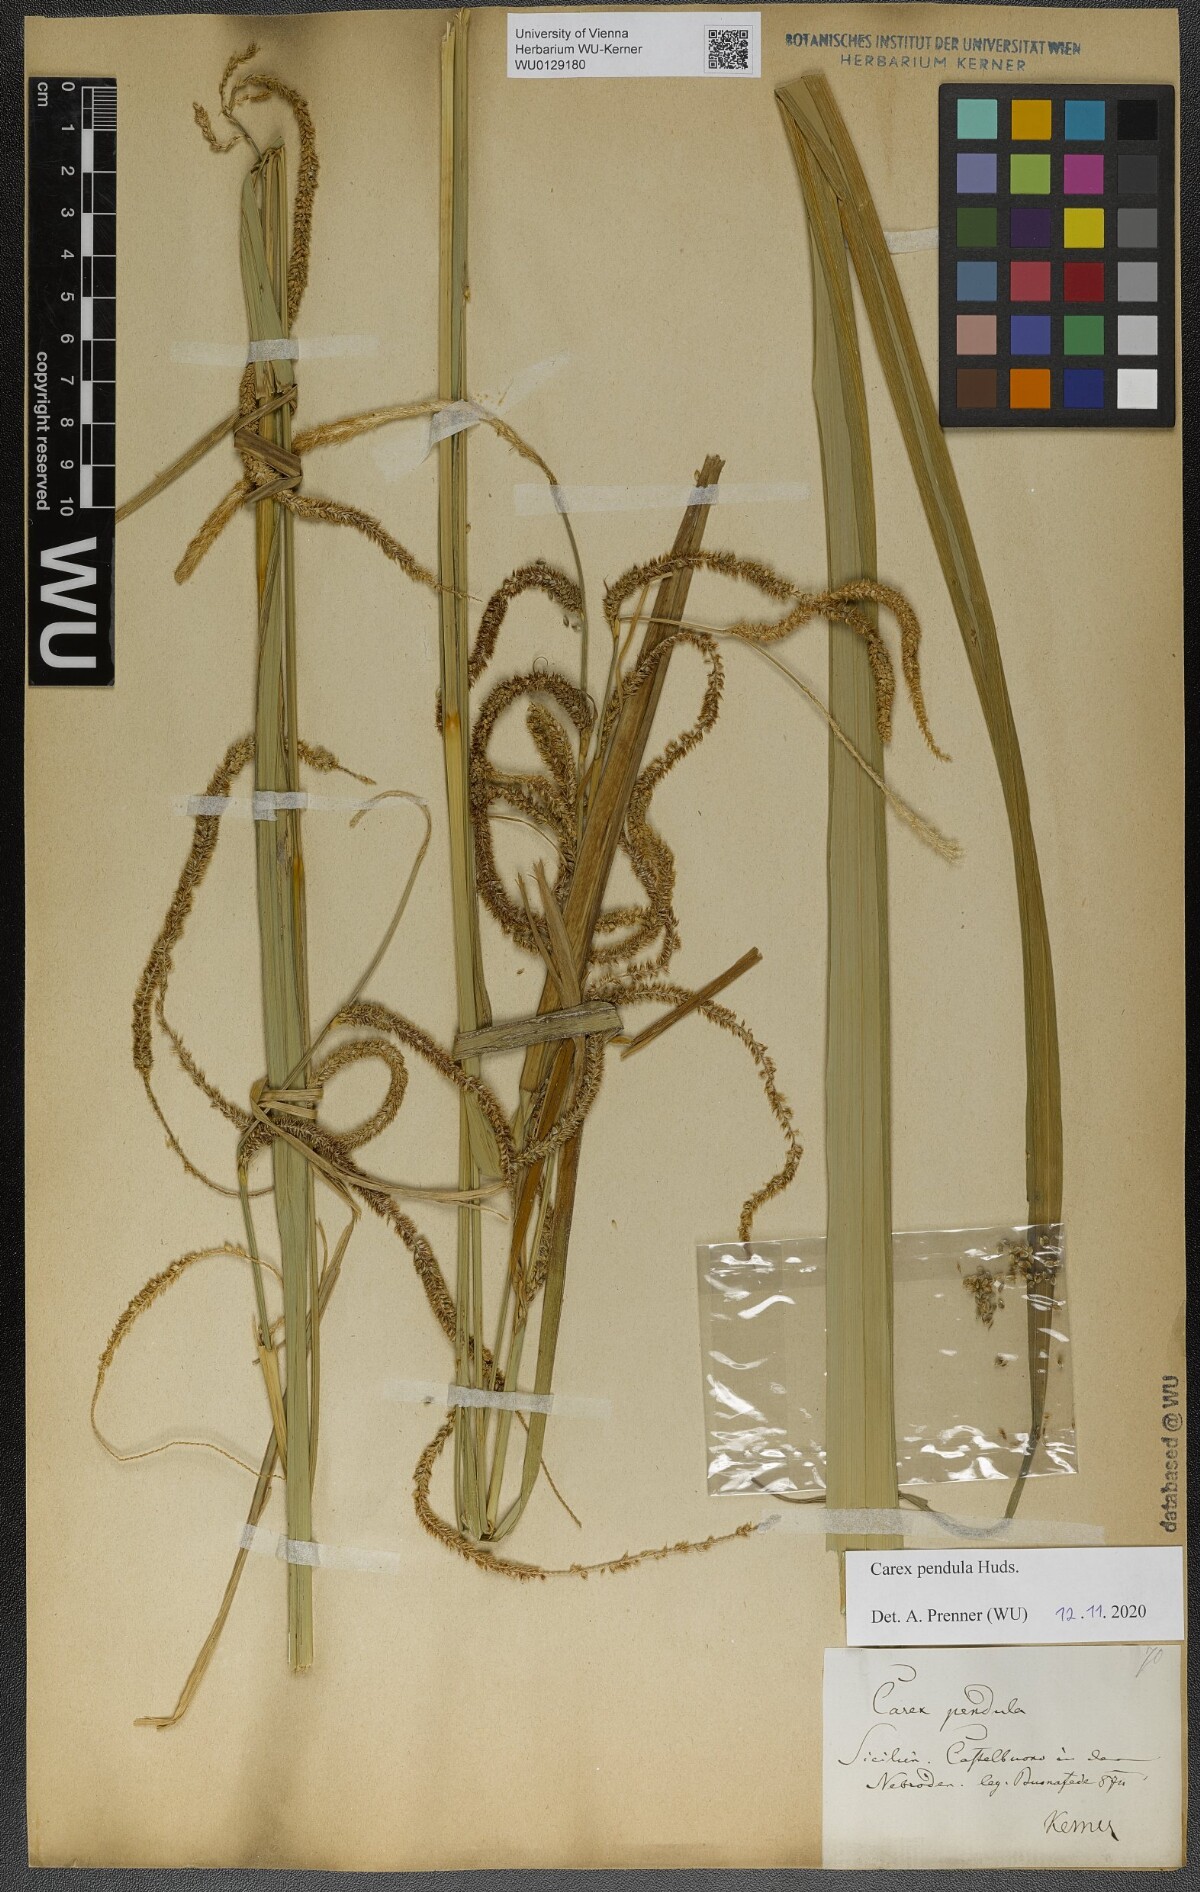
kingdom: Plantae
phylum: Tracheophyta
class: Liliopsida
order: Poales
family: Cyperaceae
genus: Carex
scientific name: Carex pendula
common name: Pendulous sedge
